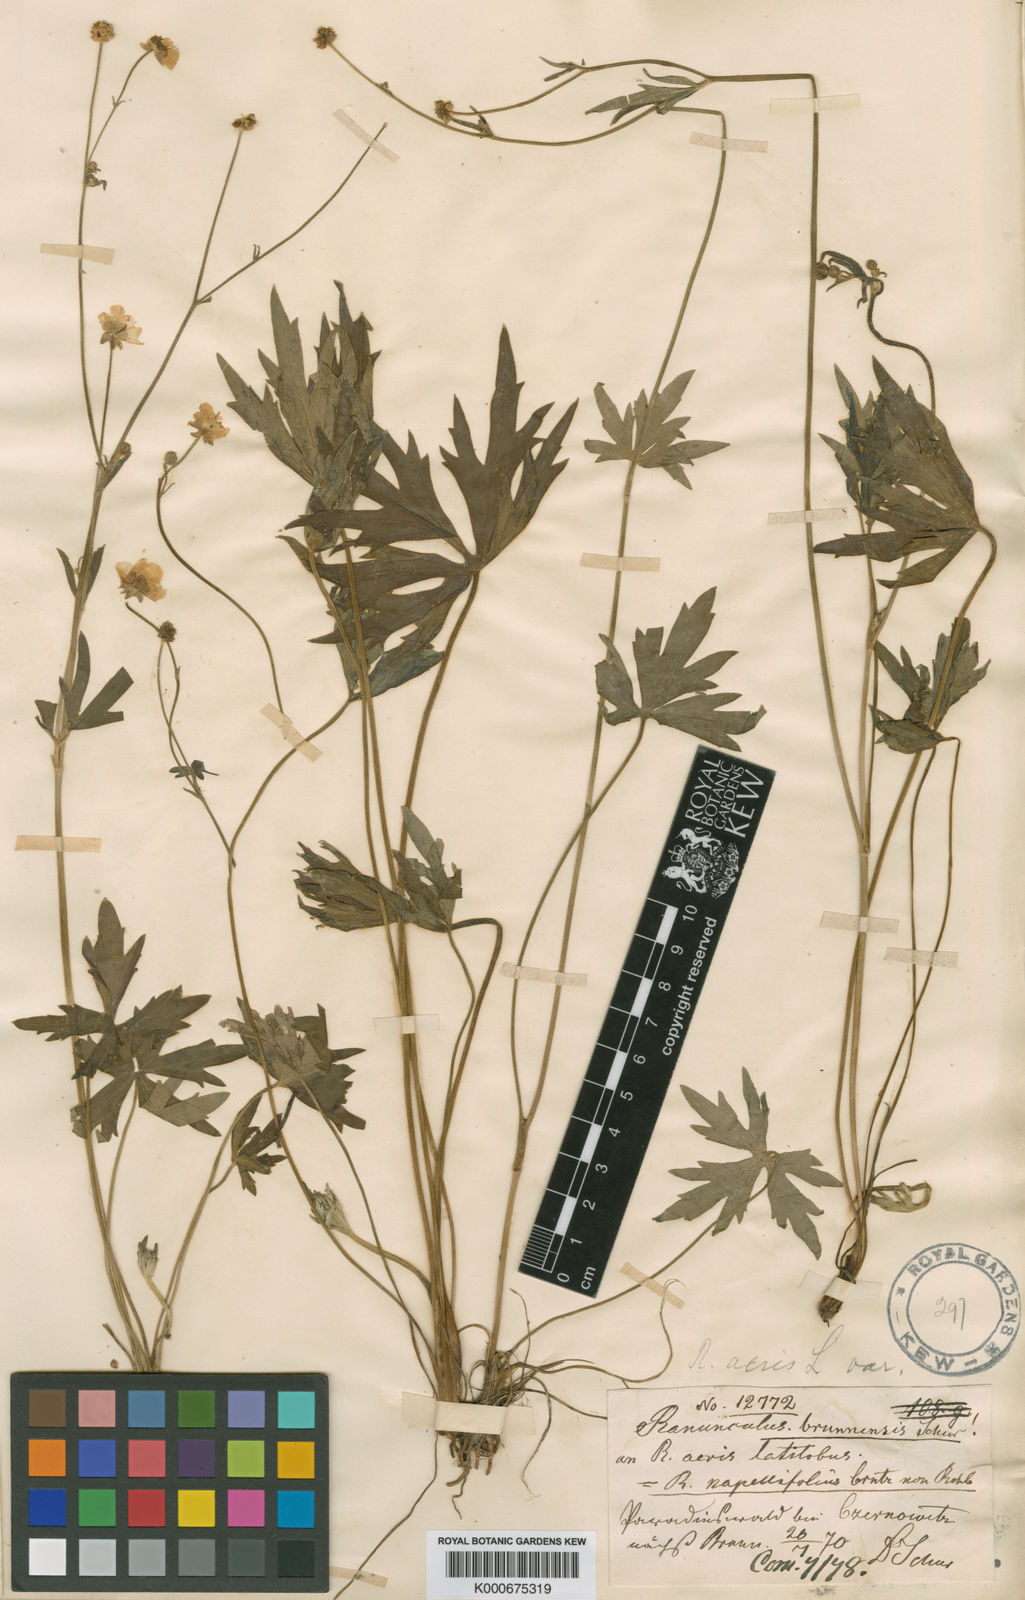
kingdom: Plantae
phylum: Tracheophyta
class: Magnoliopsida
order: Ranunculales
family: Ranunculaceae
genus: Ranunculus
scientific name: Ranunculus acris
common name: Meadow buttercup
